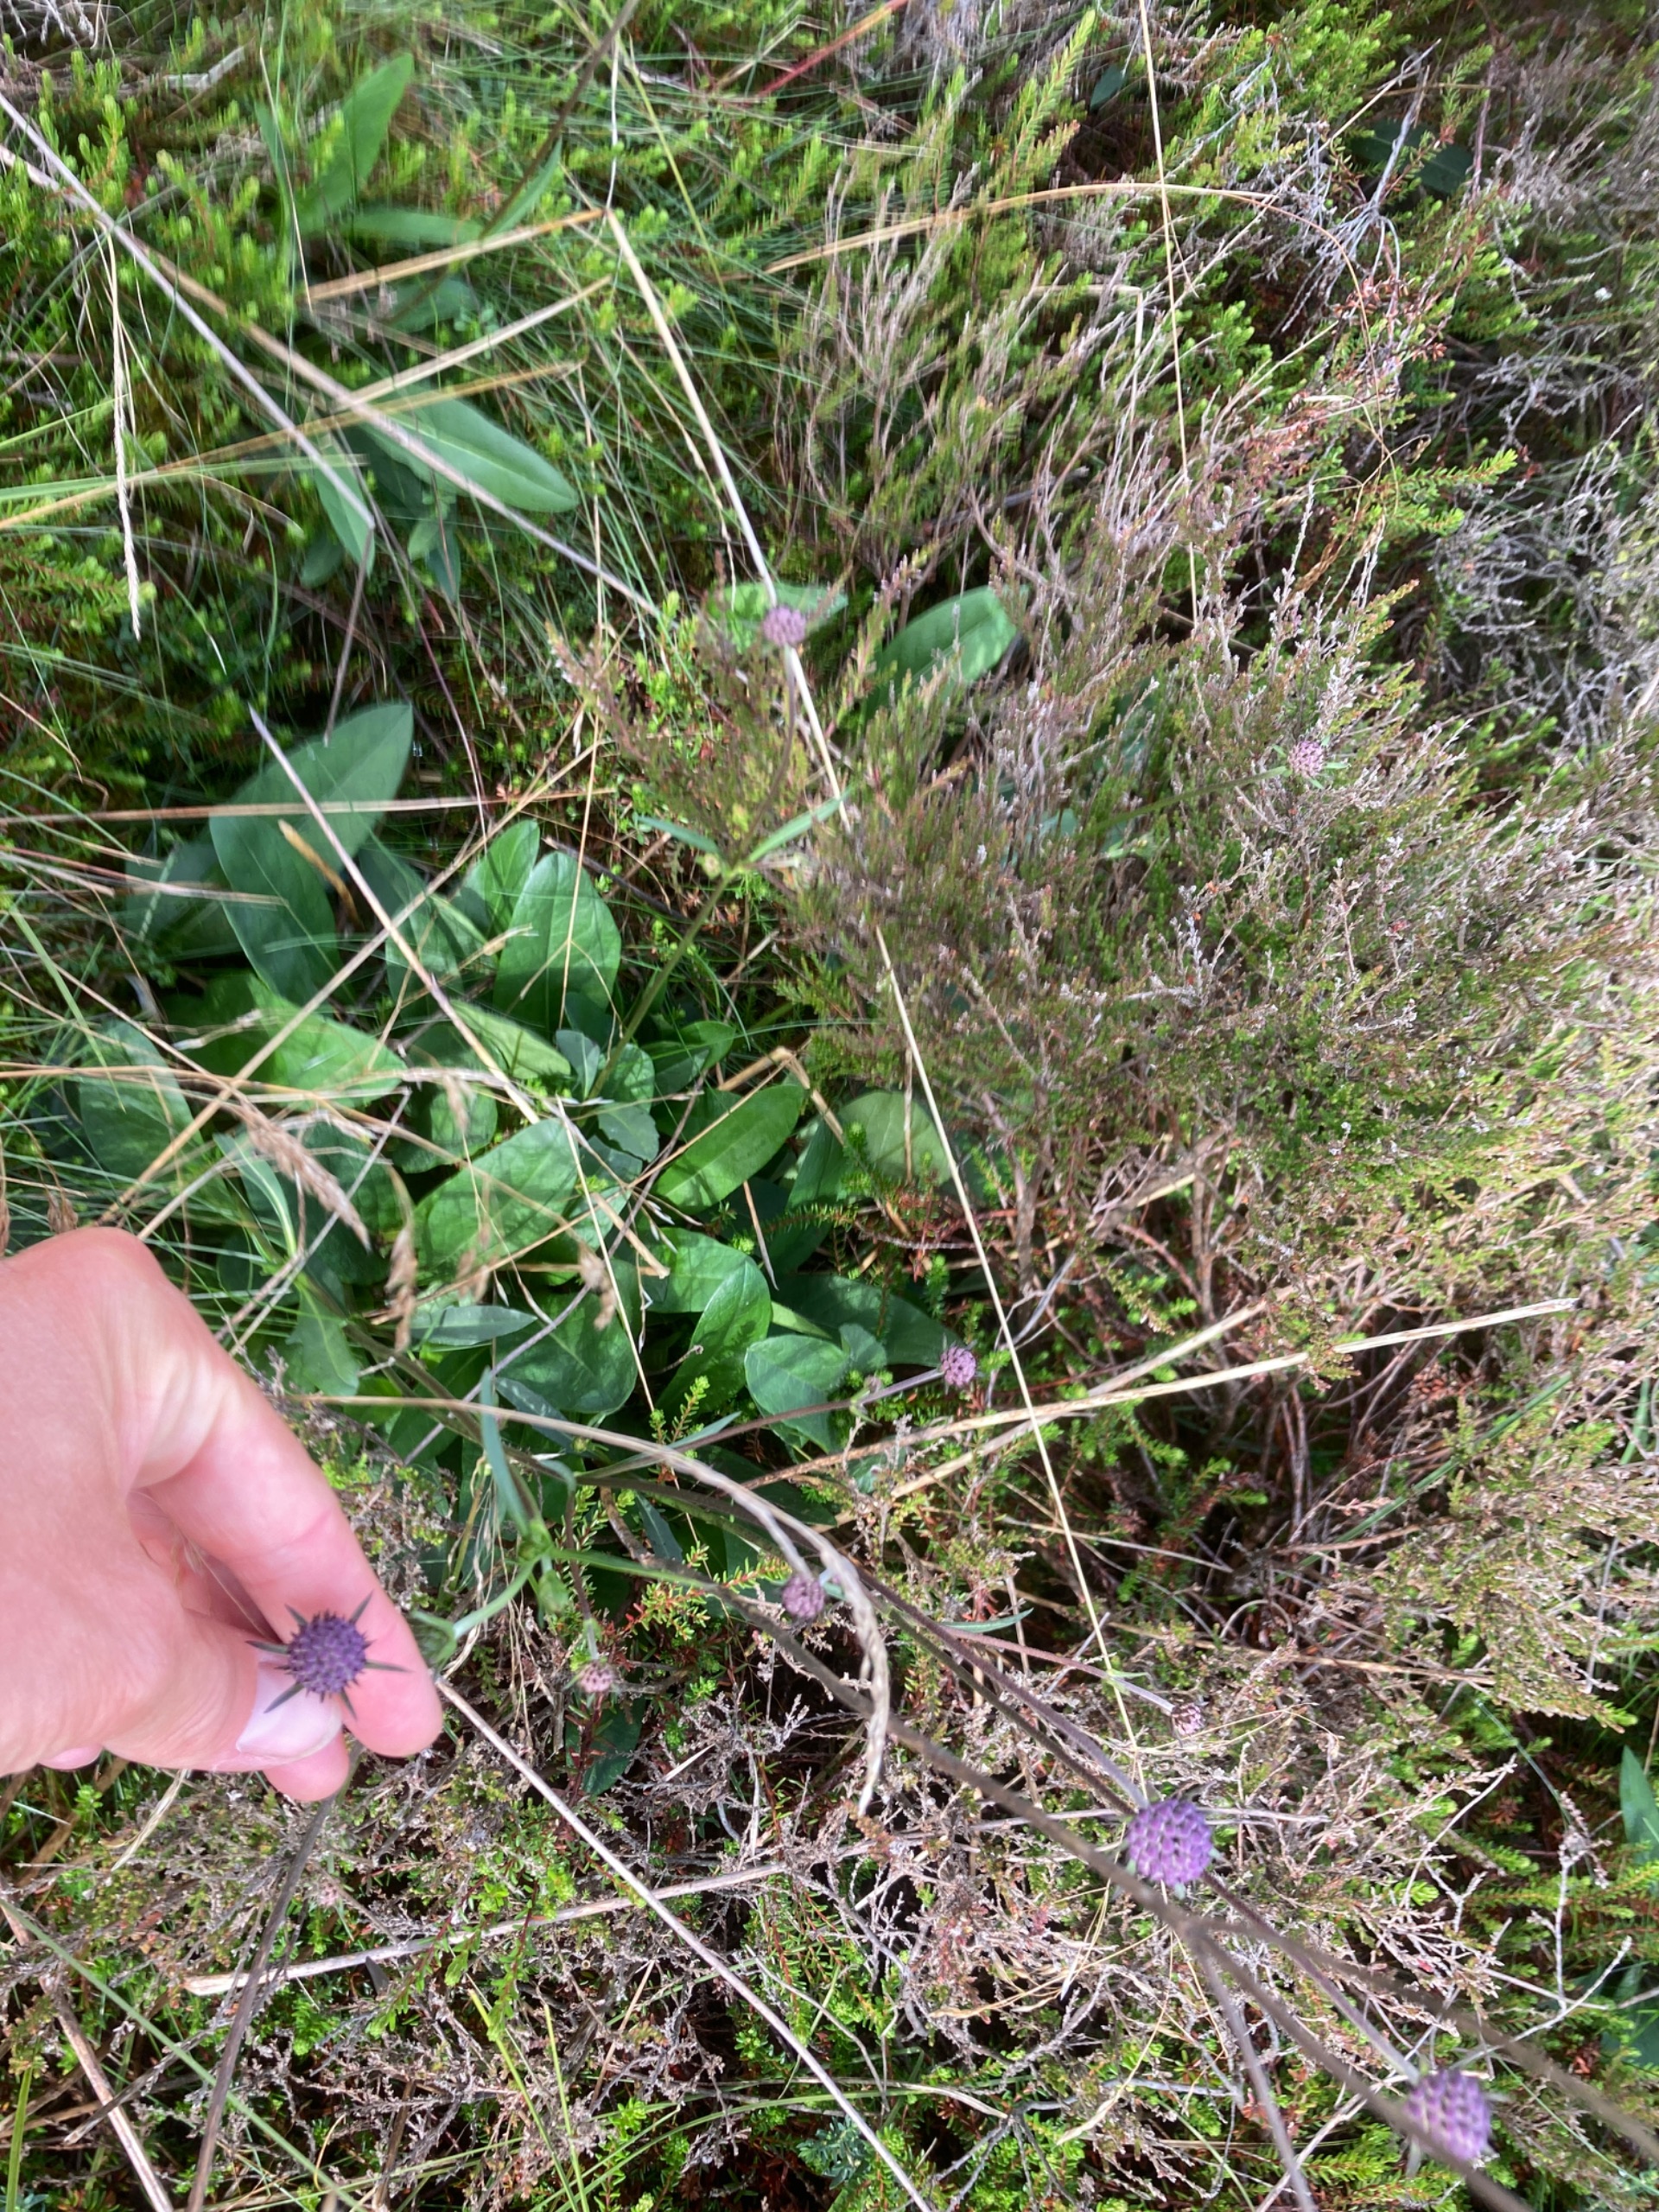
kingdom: Plantae
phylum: Tracheophyta
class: Magnoliopsida
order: Dipsacales
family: Caprifoliaceae
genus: Succisa
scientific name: Succisa pratensis
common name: Djævelsbid
